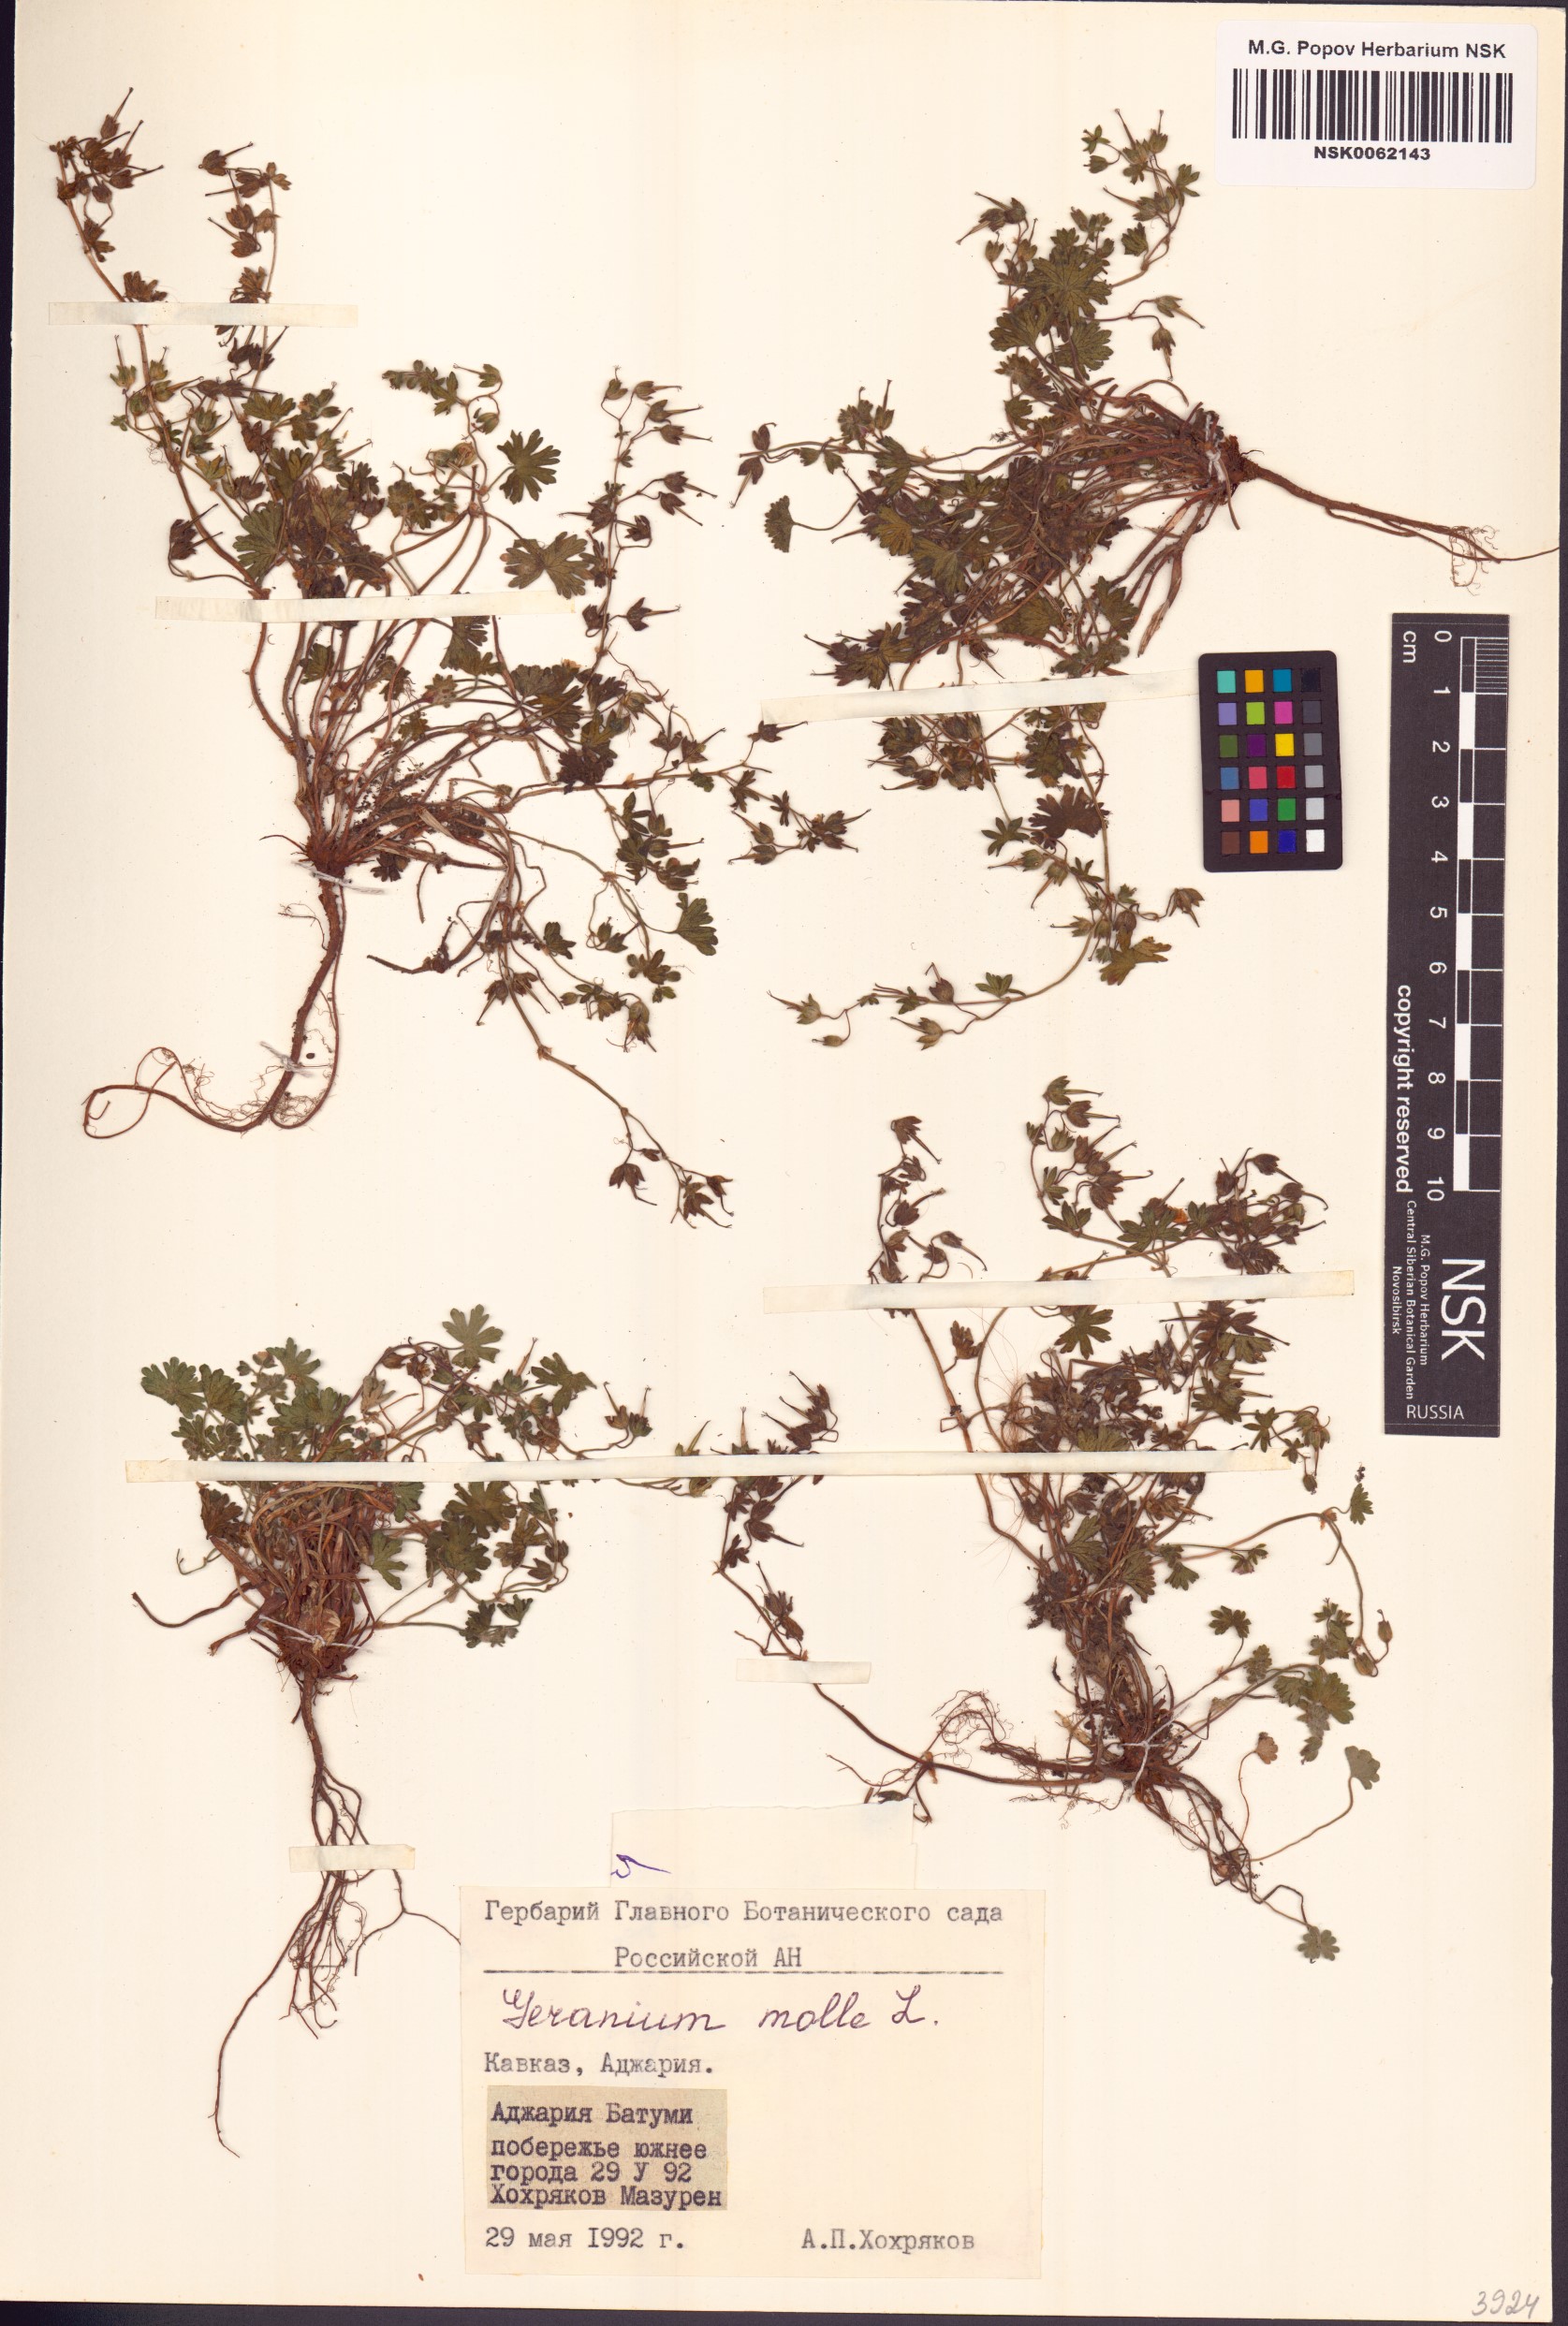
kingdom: Plantae
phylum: Tracheophyta
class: Magnoliopsida
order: Geraniales
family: Geraniaceae
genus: Geranium
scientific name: Geranium molle
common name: Dove's-foot crane's-bill
